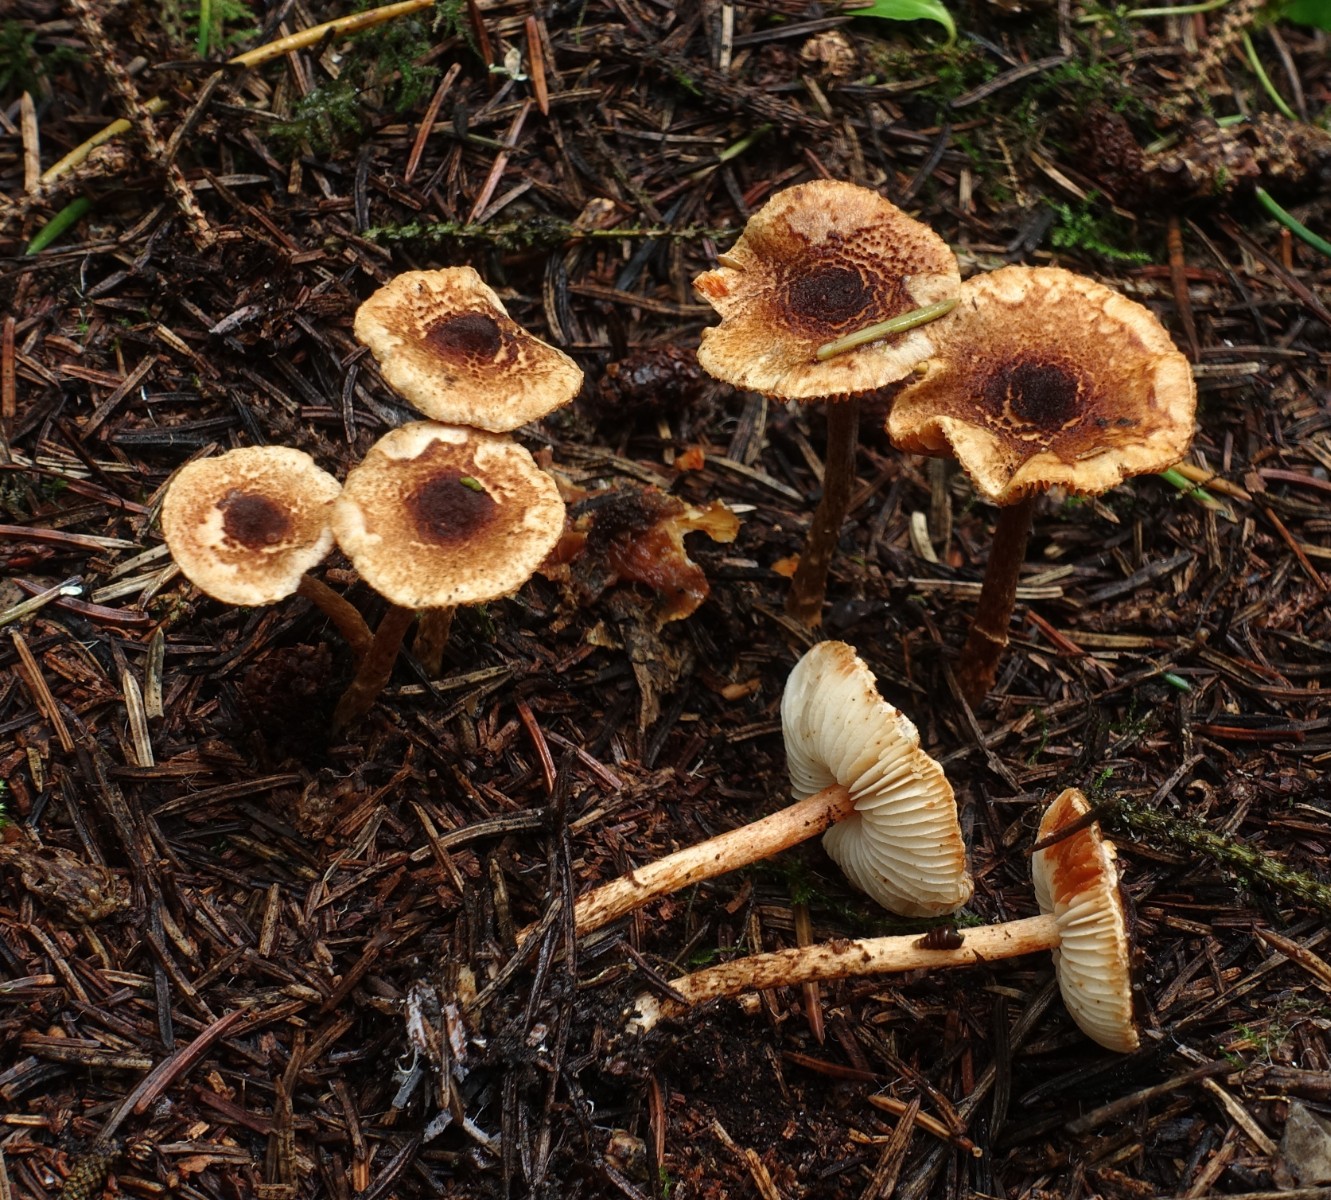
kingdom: Fungi
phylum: Basidiomycota
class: Agaricomycetes
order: Agaricales
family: Agaricaceae
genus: Lepiota
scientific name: Lepiota castanea
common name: kastaniebrun parasolhat
